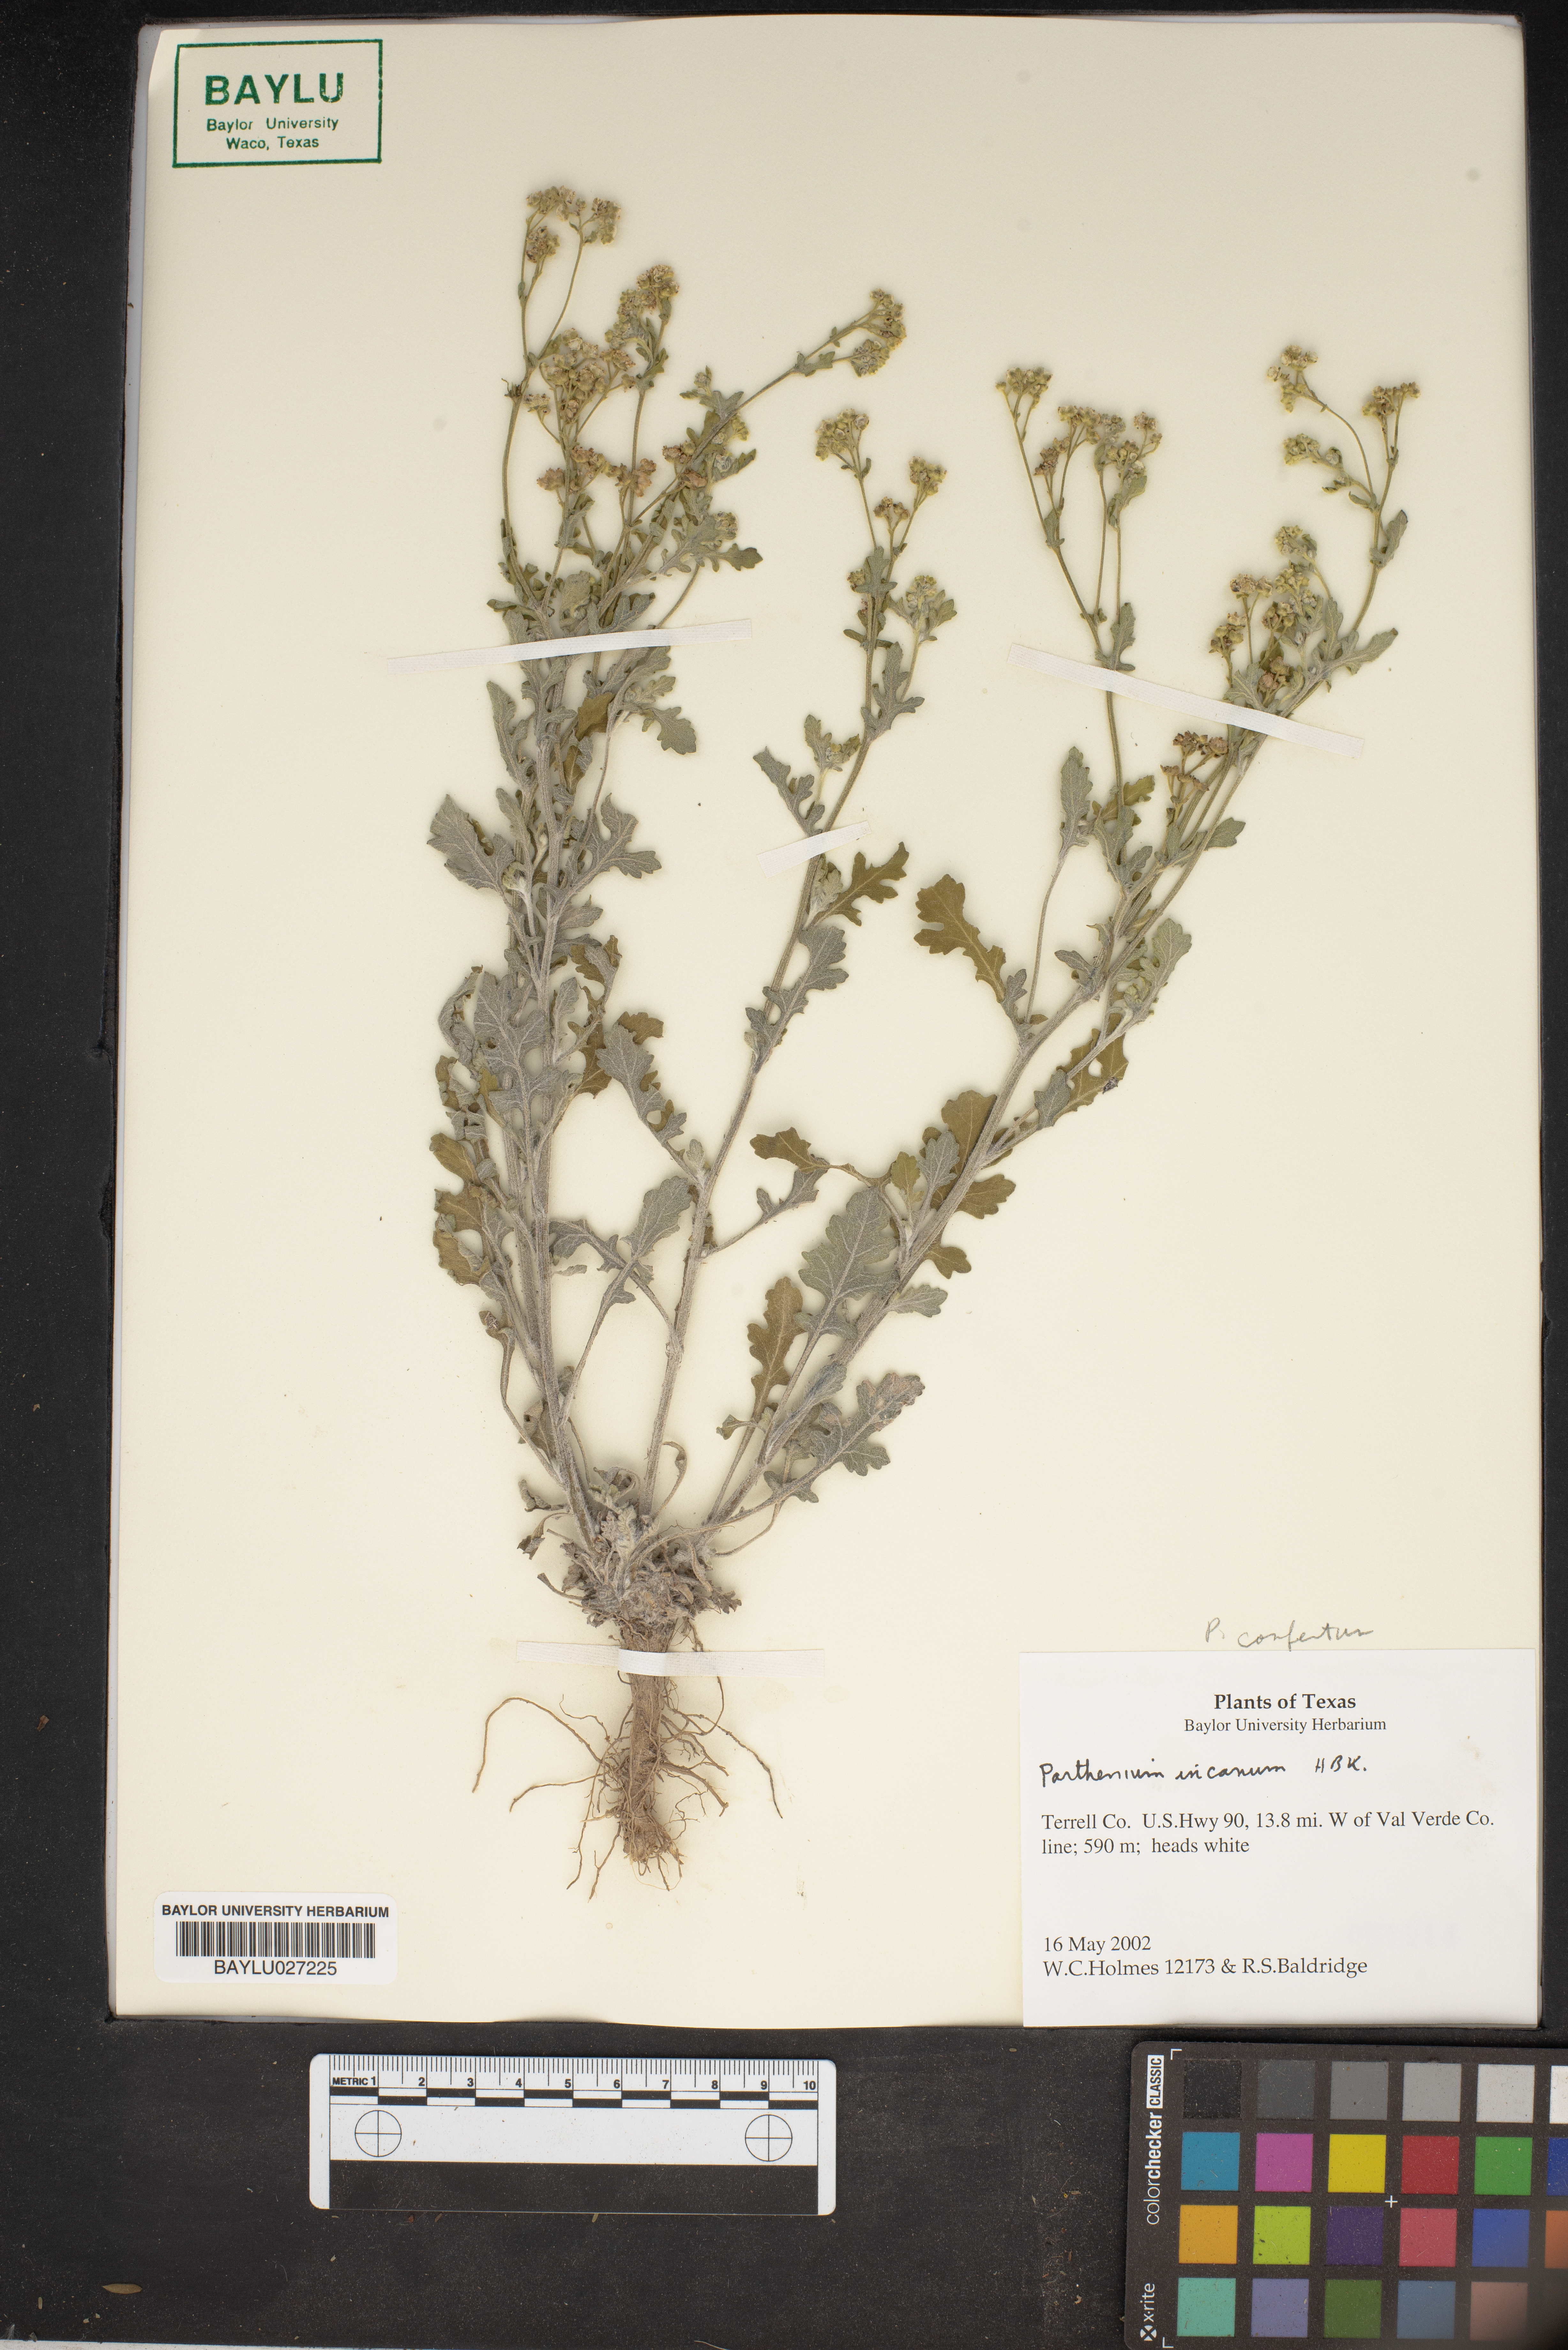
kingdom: Plantae
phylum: Tracheophyta
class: Magnoliopsida
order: Asterales
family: Asteraceae
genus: Parthenium
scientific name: Parthenium incanum
